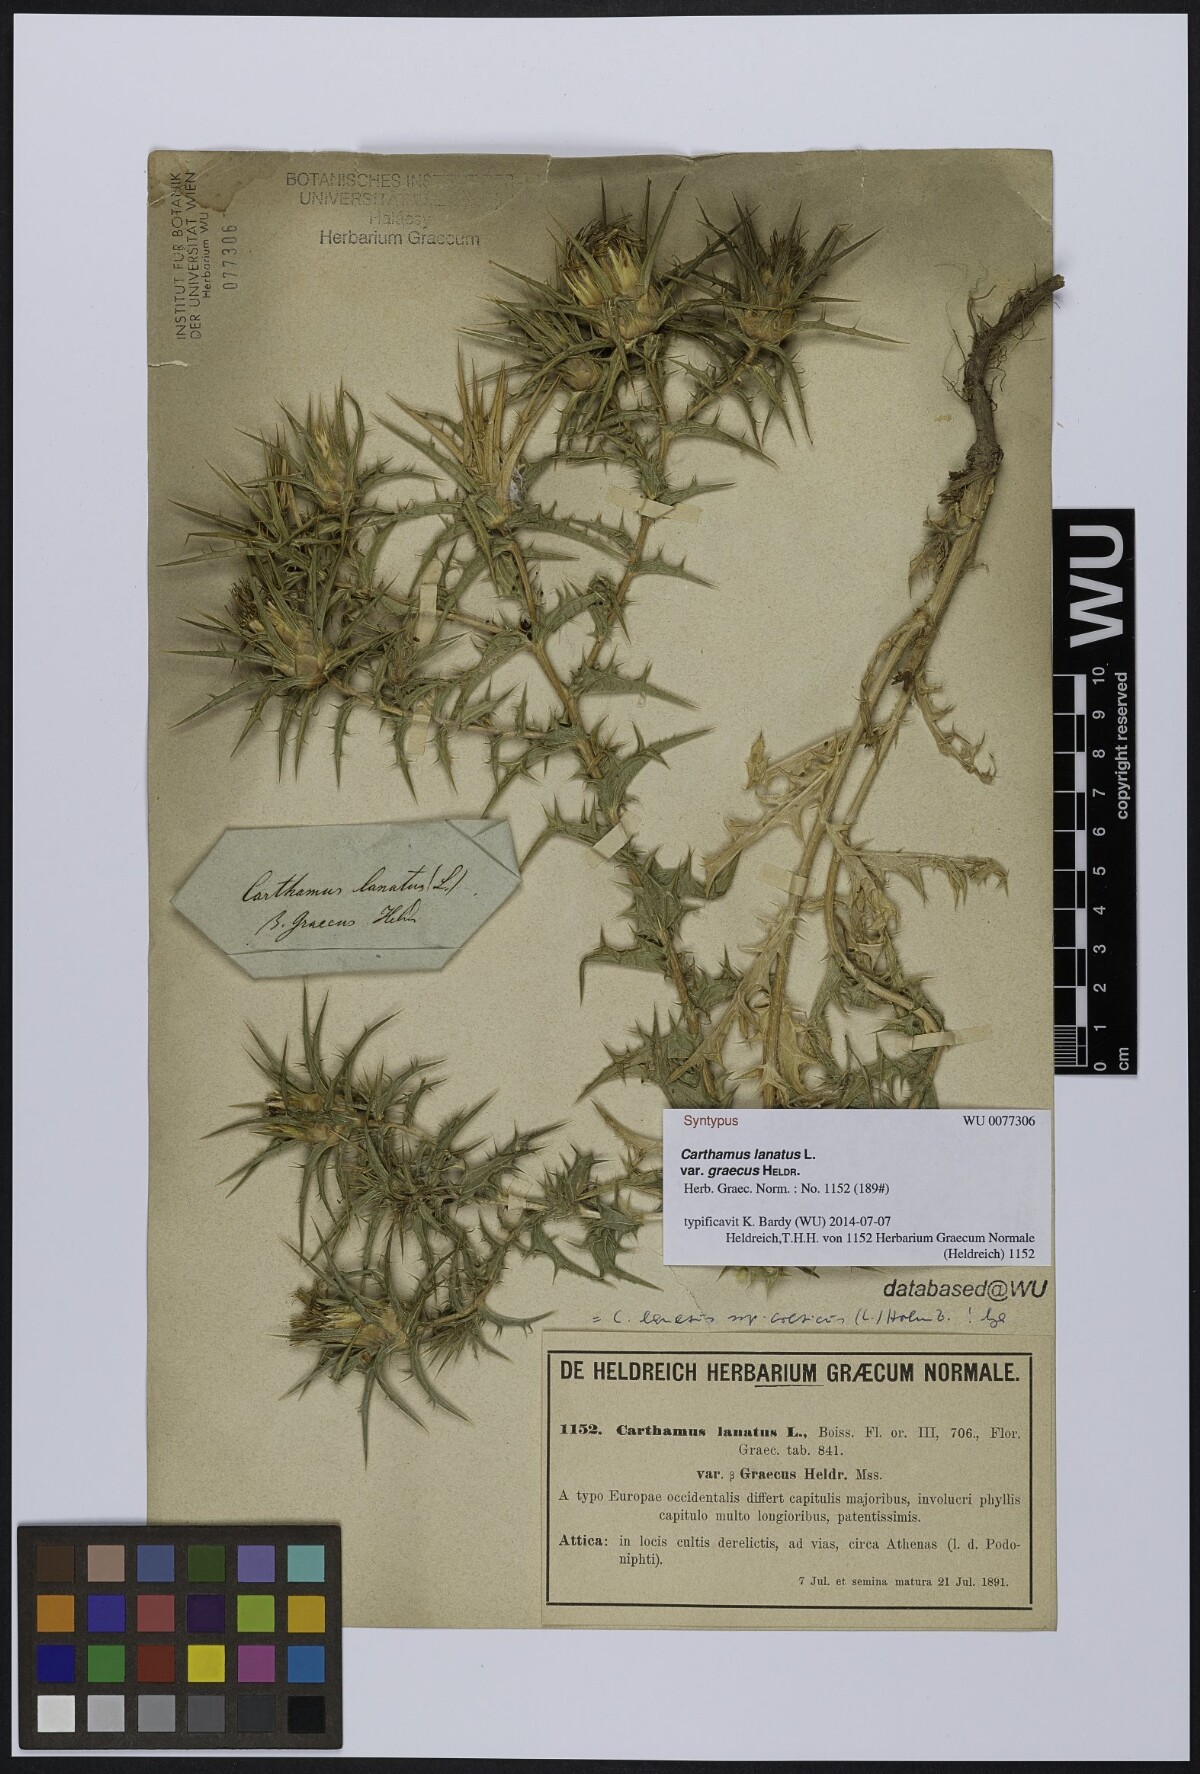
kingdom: Plantae
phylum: Tracheophyta
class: Magnoliopsida
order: Asterales
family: Asteraceae
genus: Carthamus
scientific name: Carthamus lanatus
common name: Downy safflower
